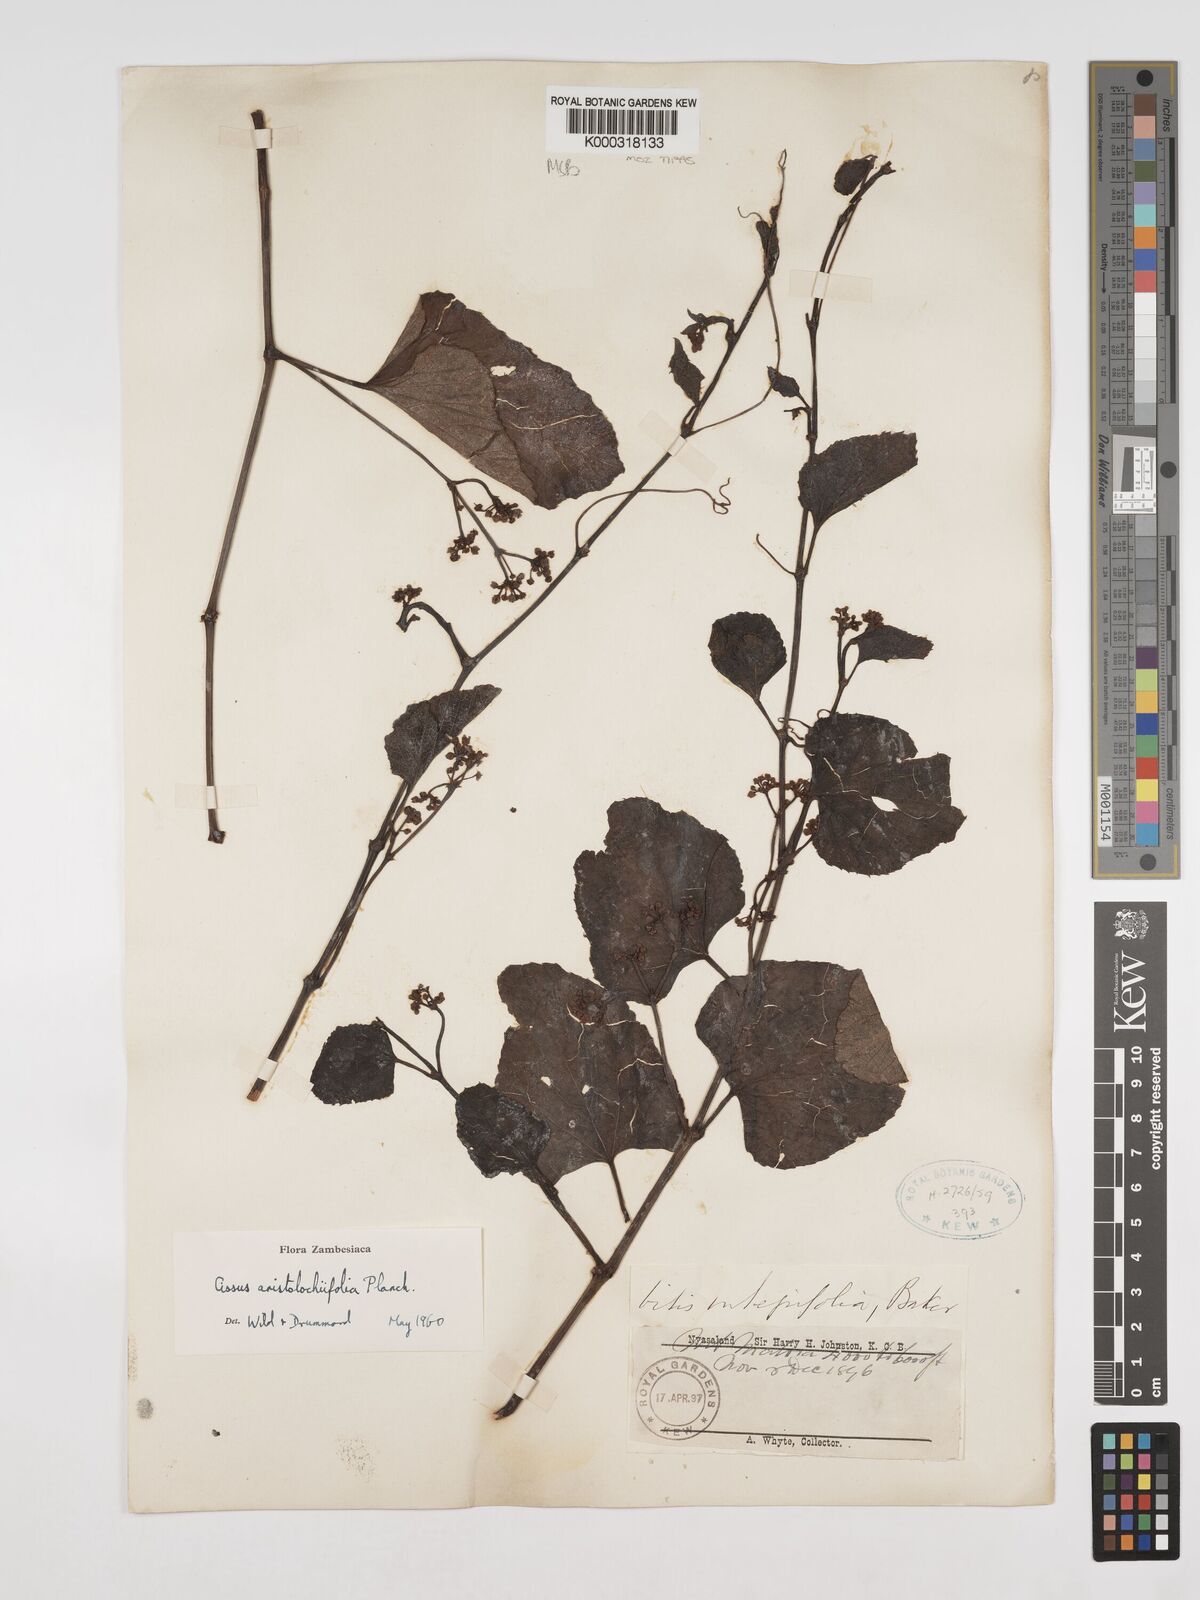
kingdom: Plantae
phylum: Tracheophyta
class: Magnoliopsida
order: Vitales
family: Vitaceae
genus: Cissus
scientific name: Cissus aristolochiifolia
